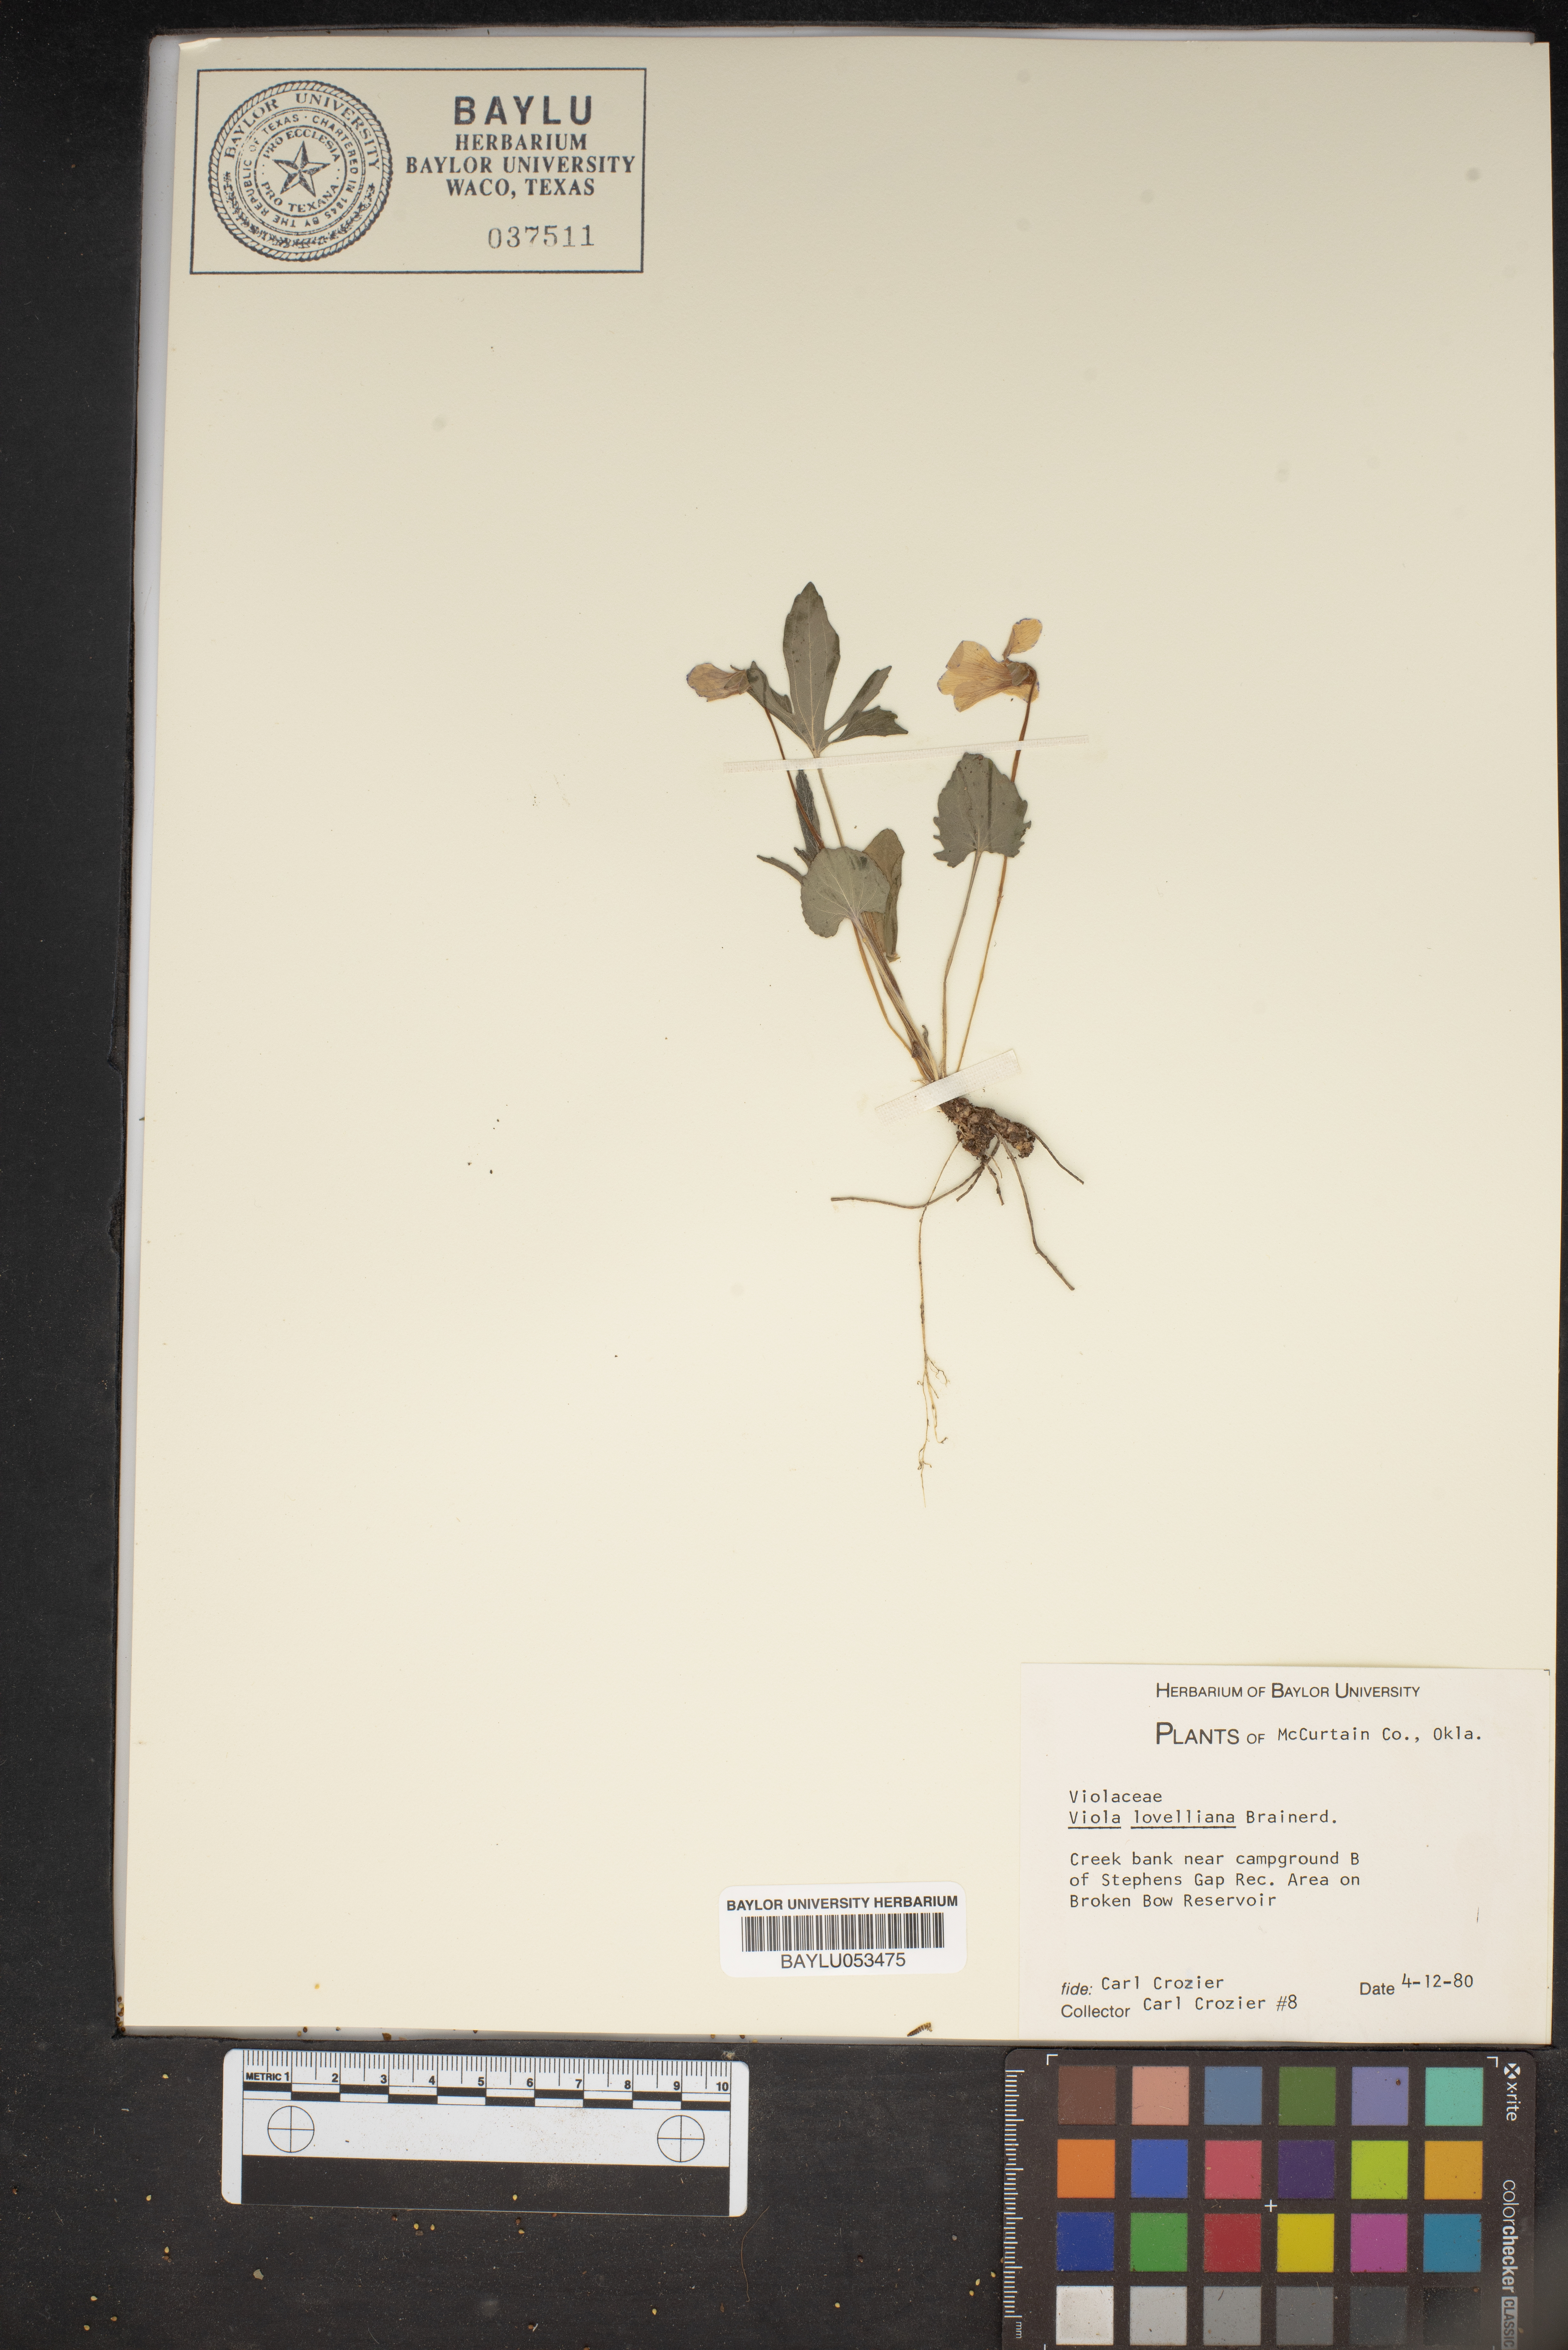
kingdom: Plantae
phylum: Tracheophyta
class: Magnoliopsida
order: Malpighiales
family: Violaceae
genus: Viola
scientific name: Viola lovelliana
